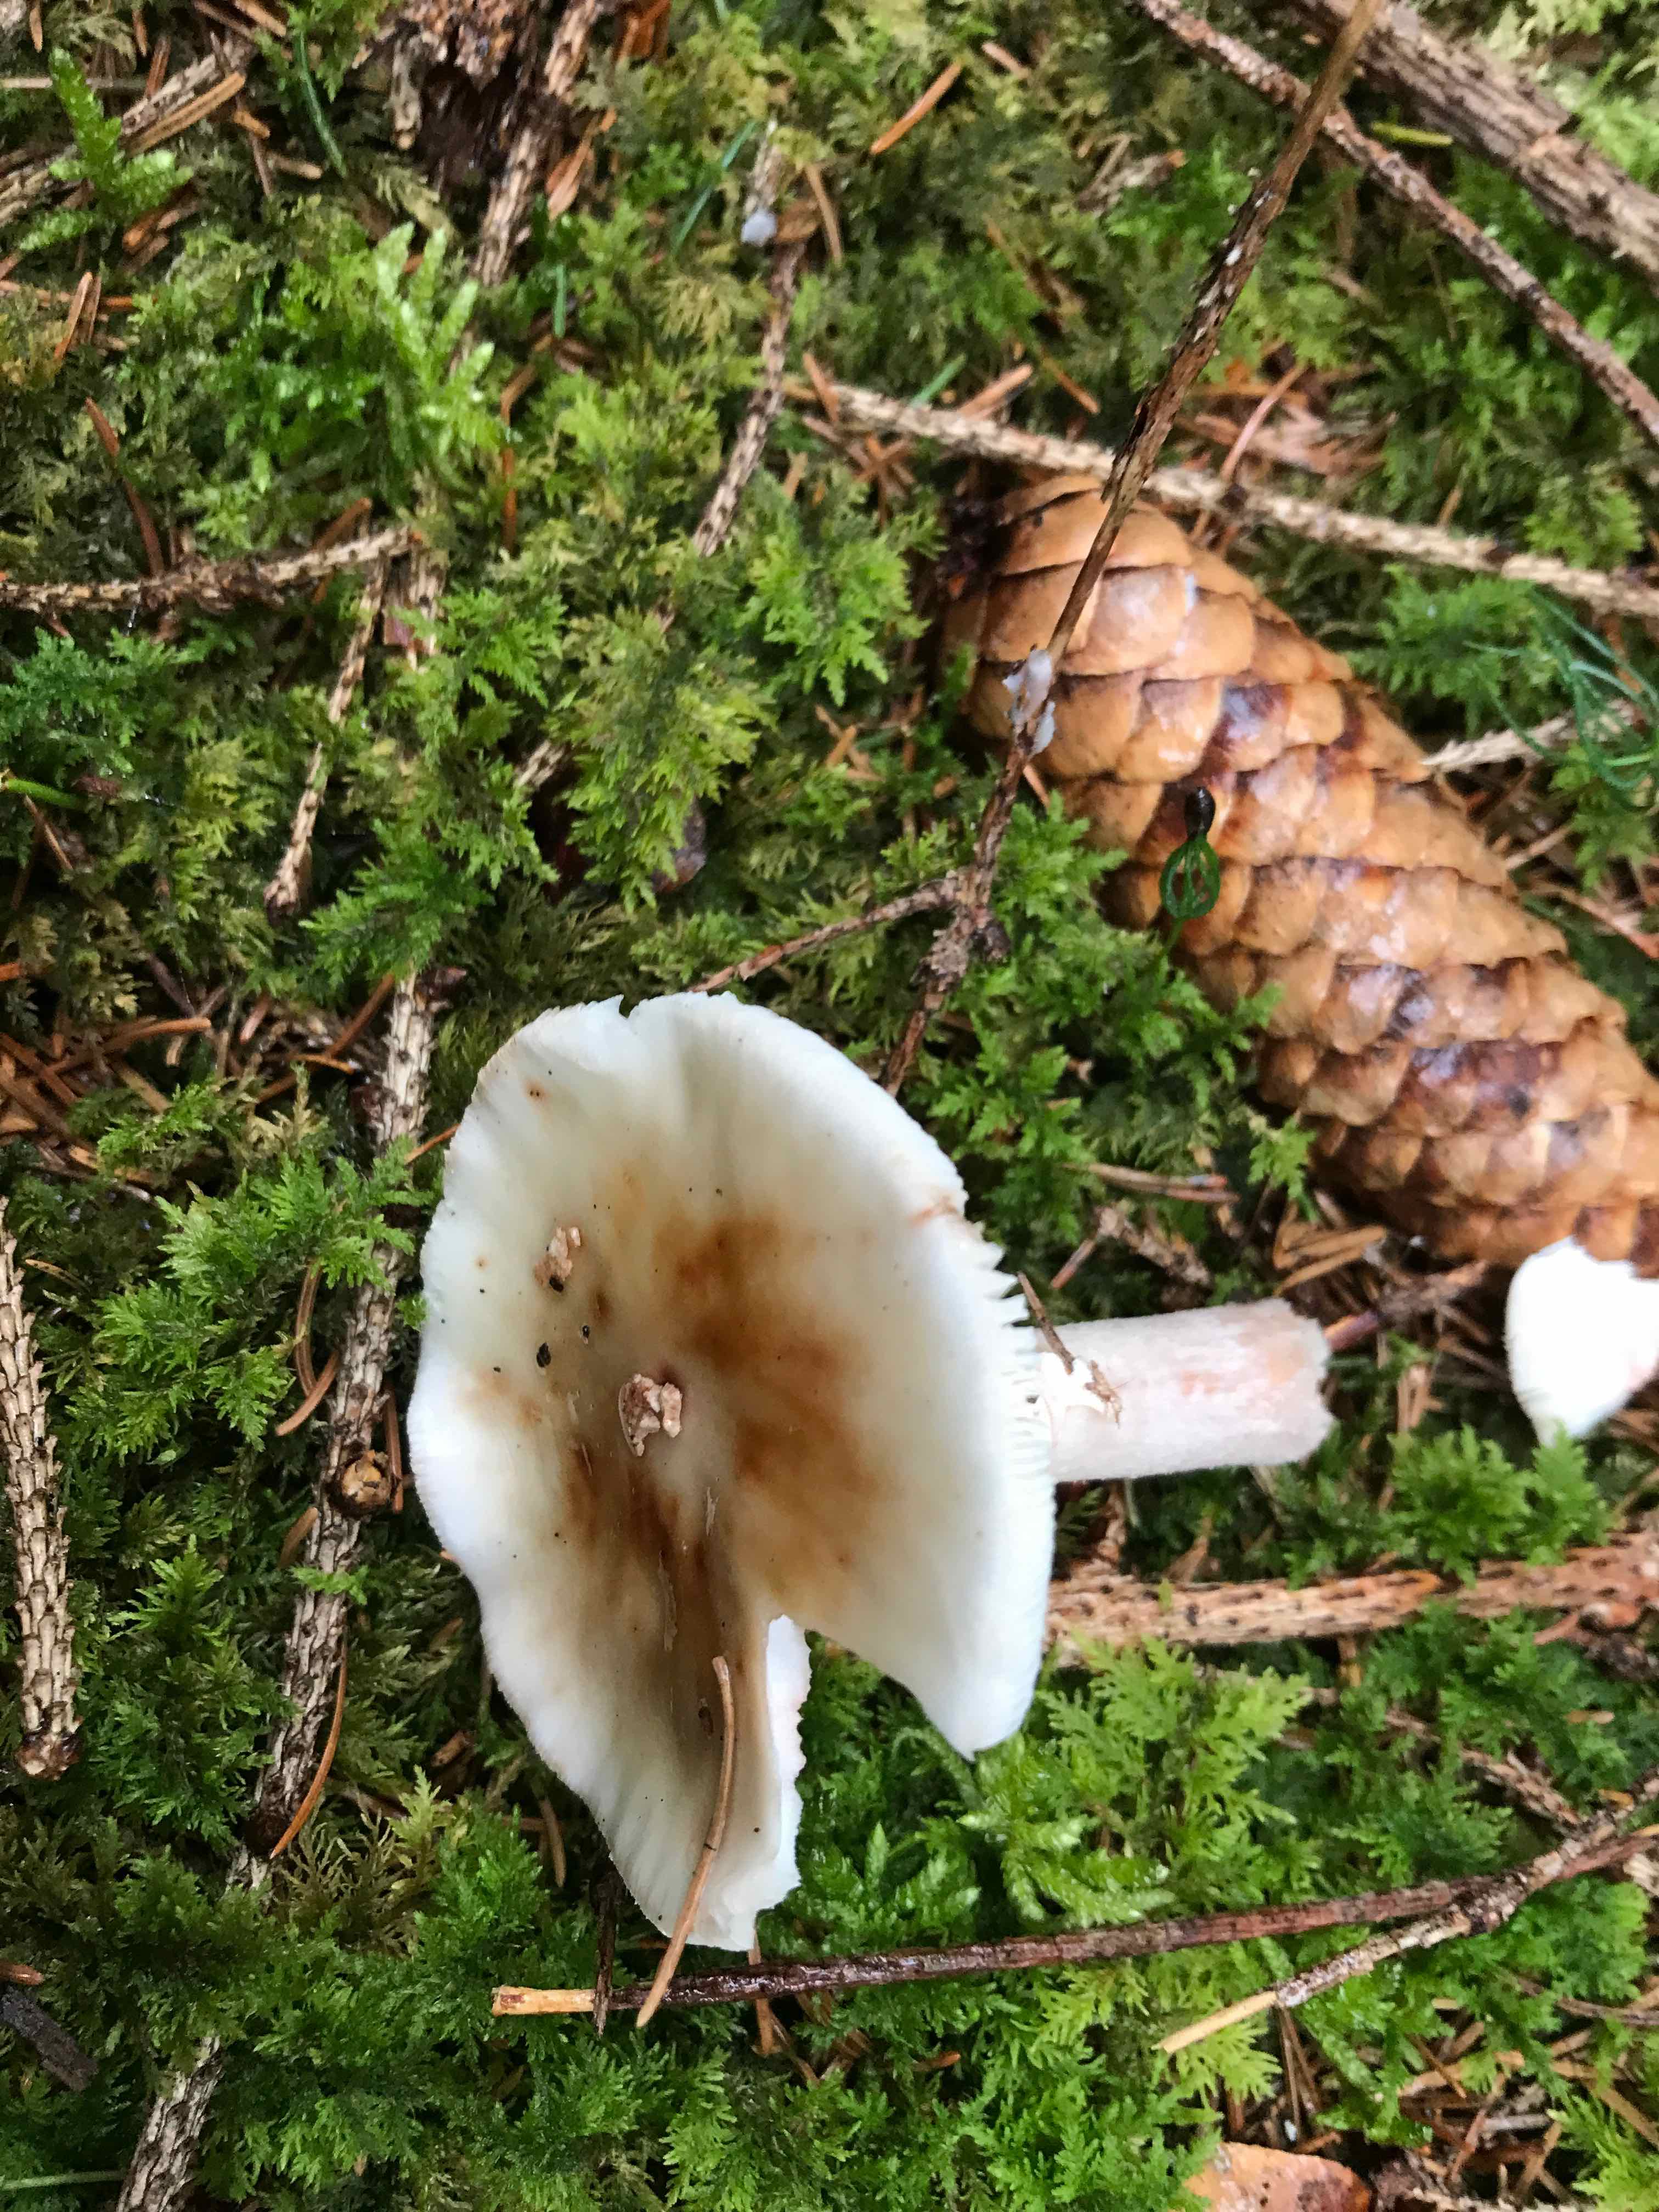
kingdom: Fungi
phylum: Basidiomycota
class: Agaricomycetes
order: Agaricales
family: Amanitaceae
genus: Amanita
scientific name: Amanita rubescens
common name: rødmende fluesvamp
